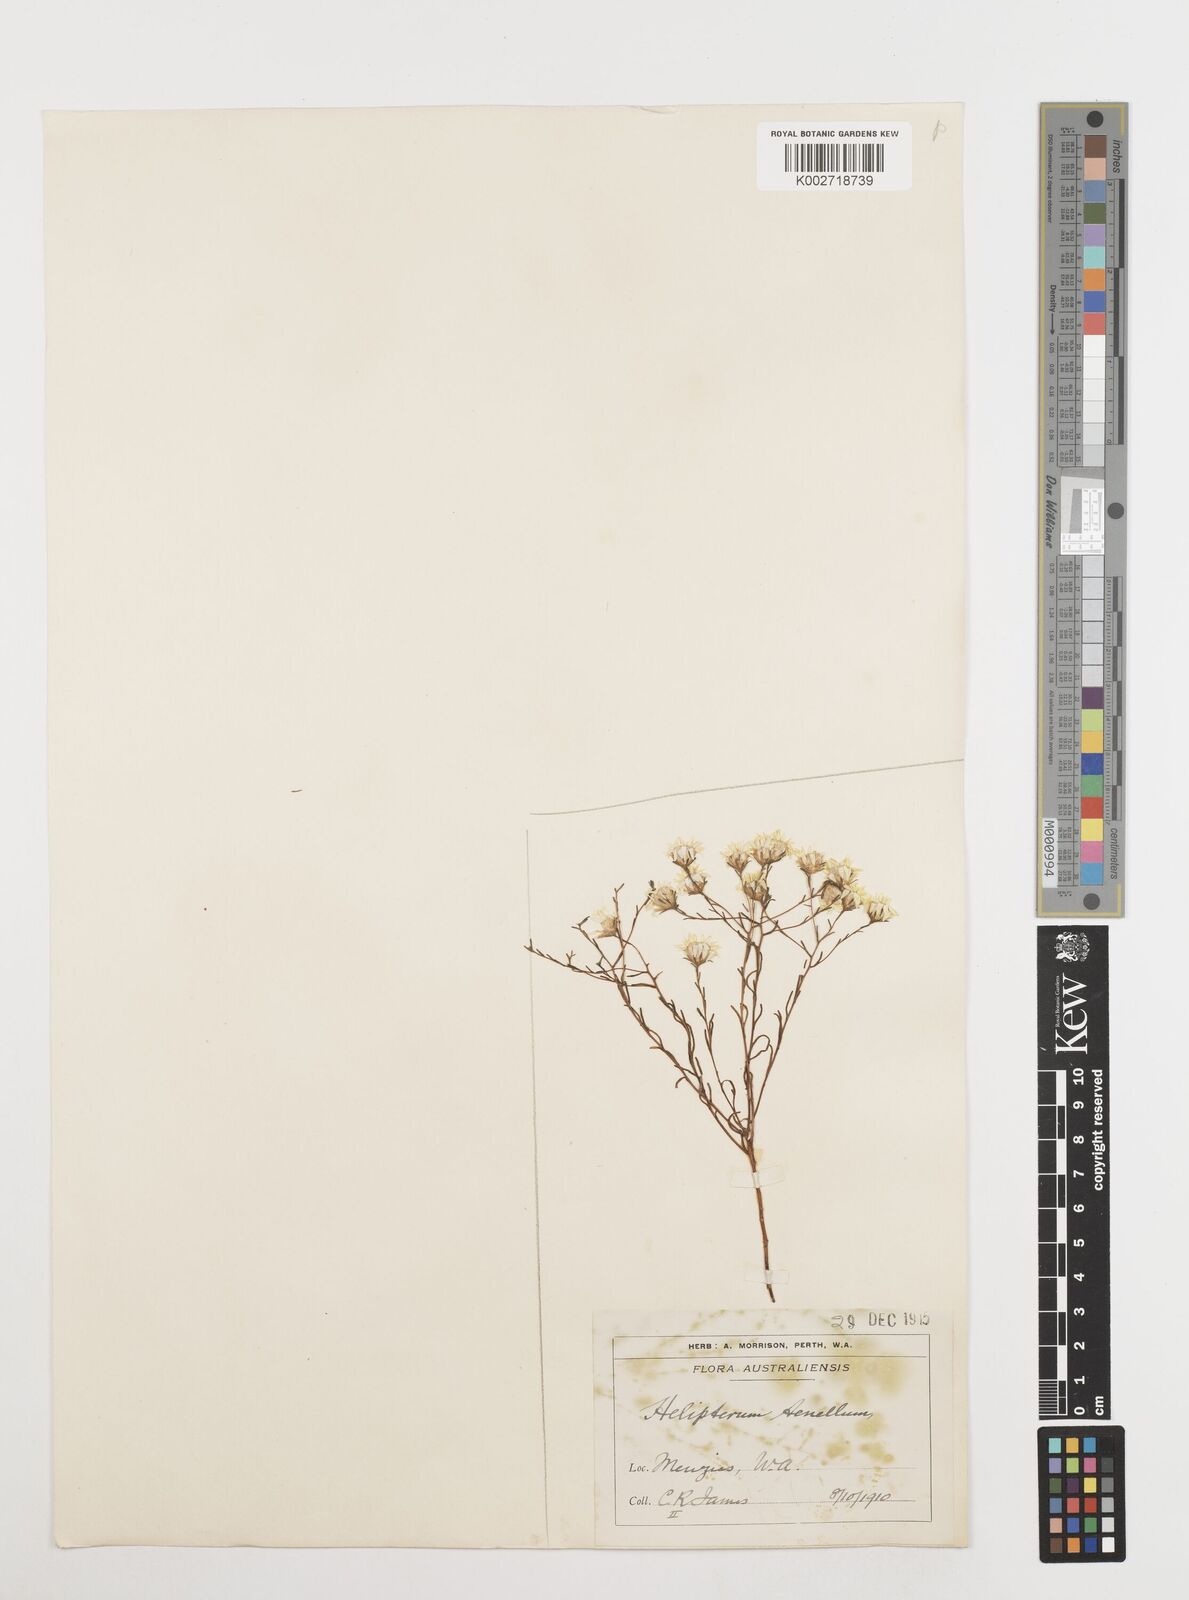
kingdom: Plantae
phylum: Tracheophyta
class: Magnoliopsida
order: Asterales
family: Asteraceae
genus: Erymophyllum
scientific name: Erymophyllum tenellum
